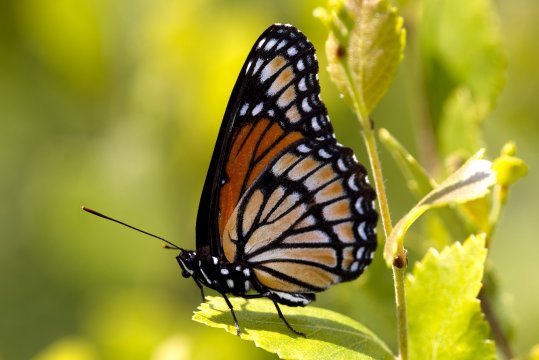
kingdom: Animalia
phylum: Arthropoda
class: Insecta
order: Lepidoptera
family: Nymphalidae
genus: Limenitis
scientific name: Limenitis archippus
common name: Viceroy
